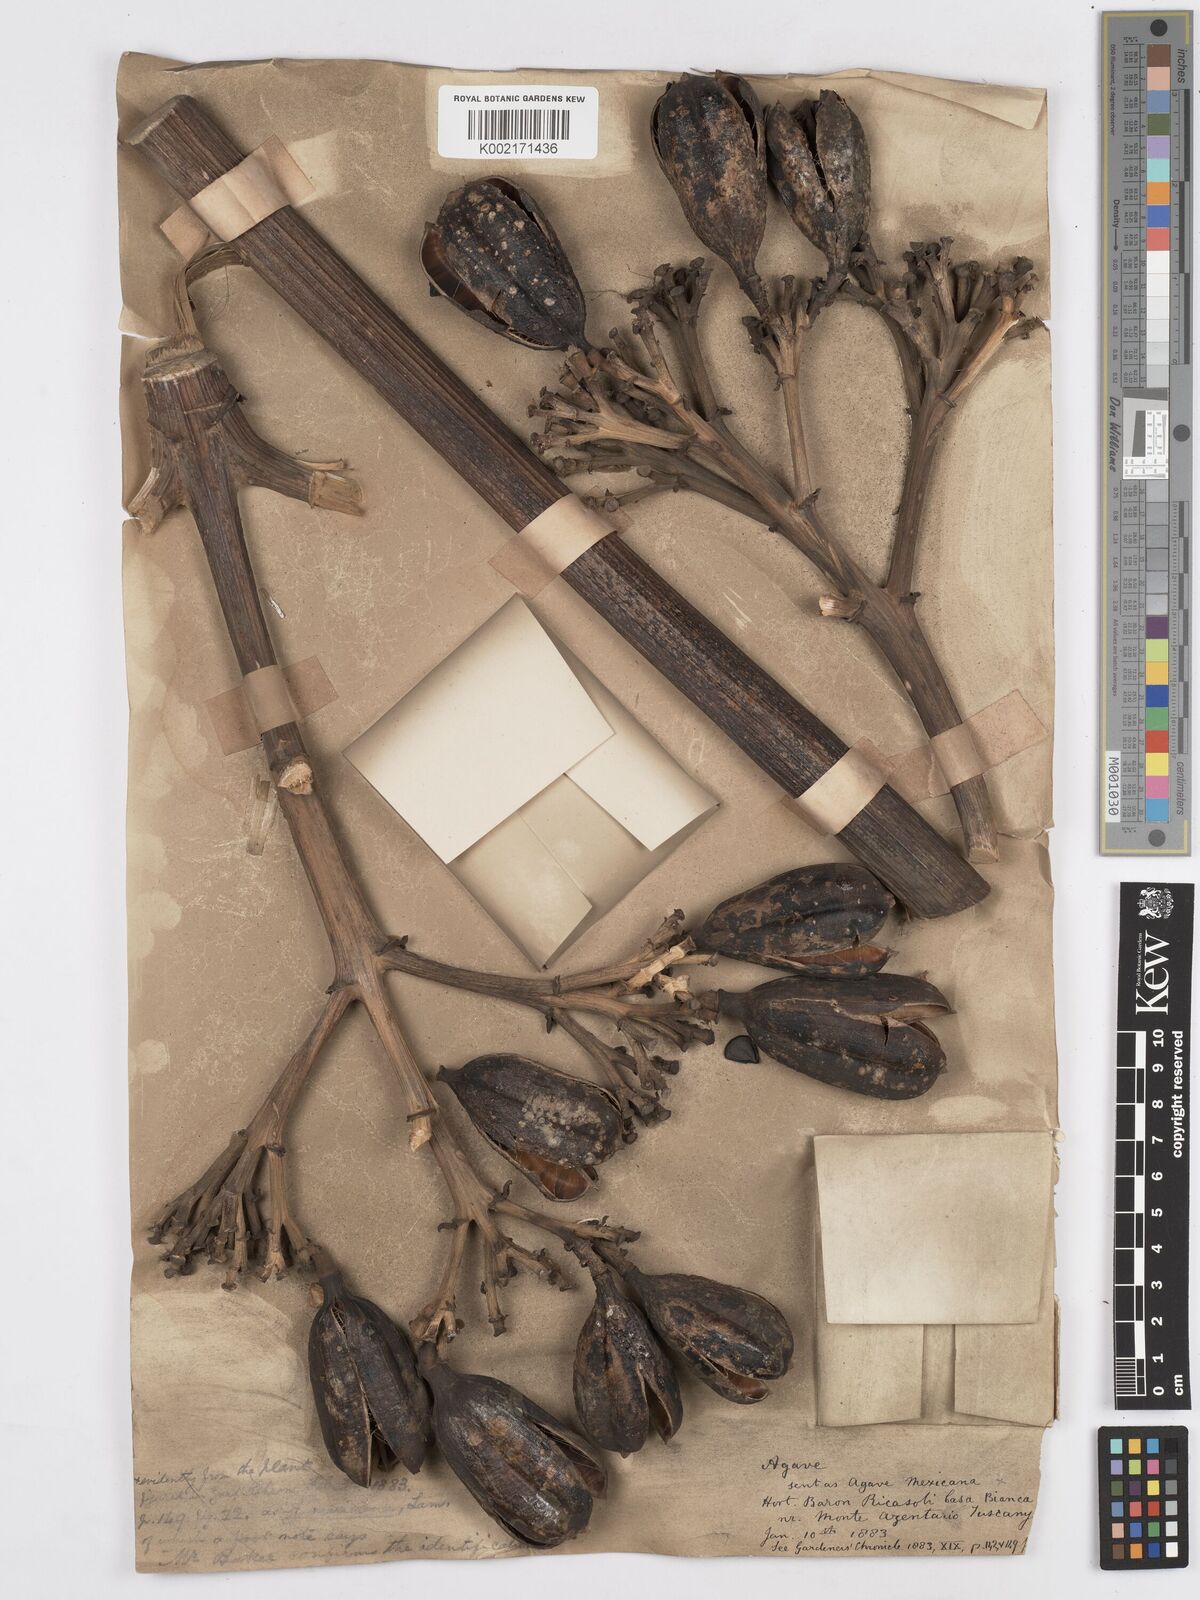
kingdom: Plantae
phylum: Tracheophyta
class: Liliopsida
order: Asparagales
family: Asparagaceae
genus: Agave
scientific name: Agave
